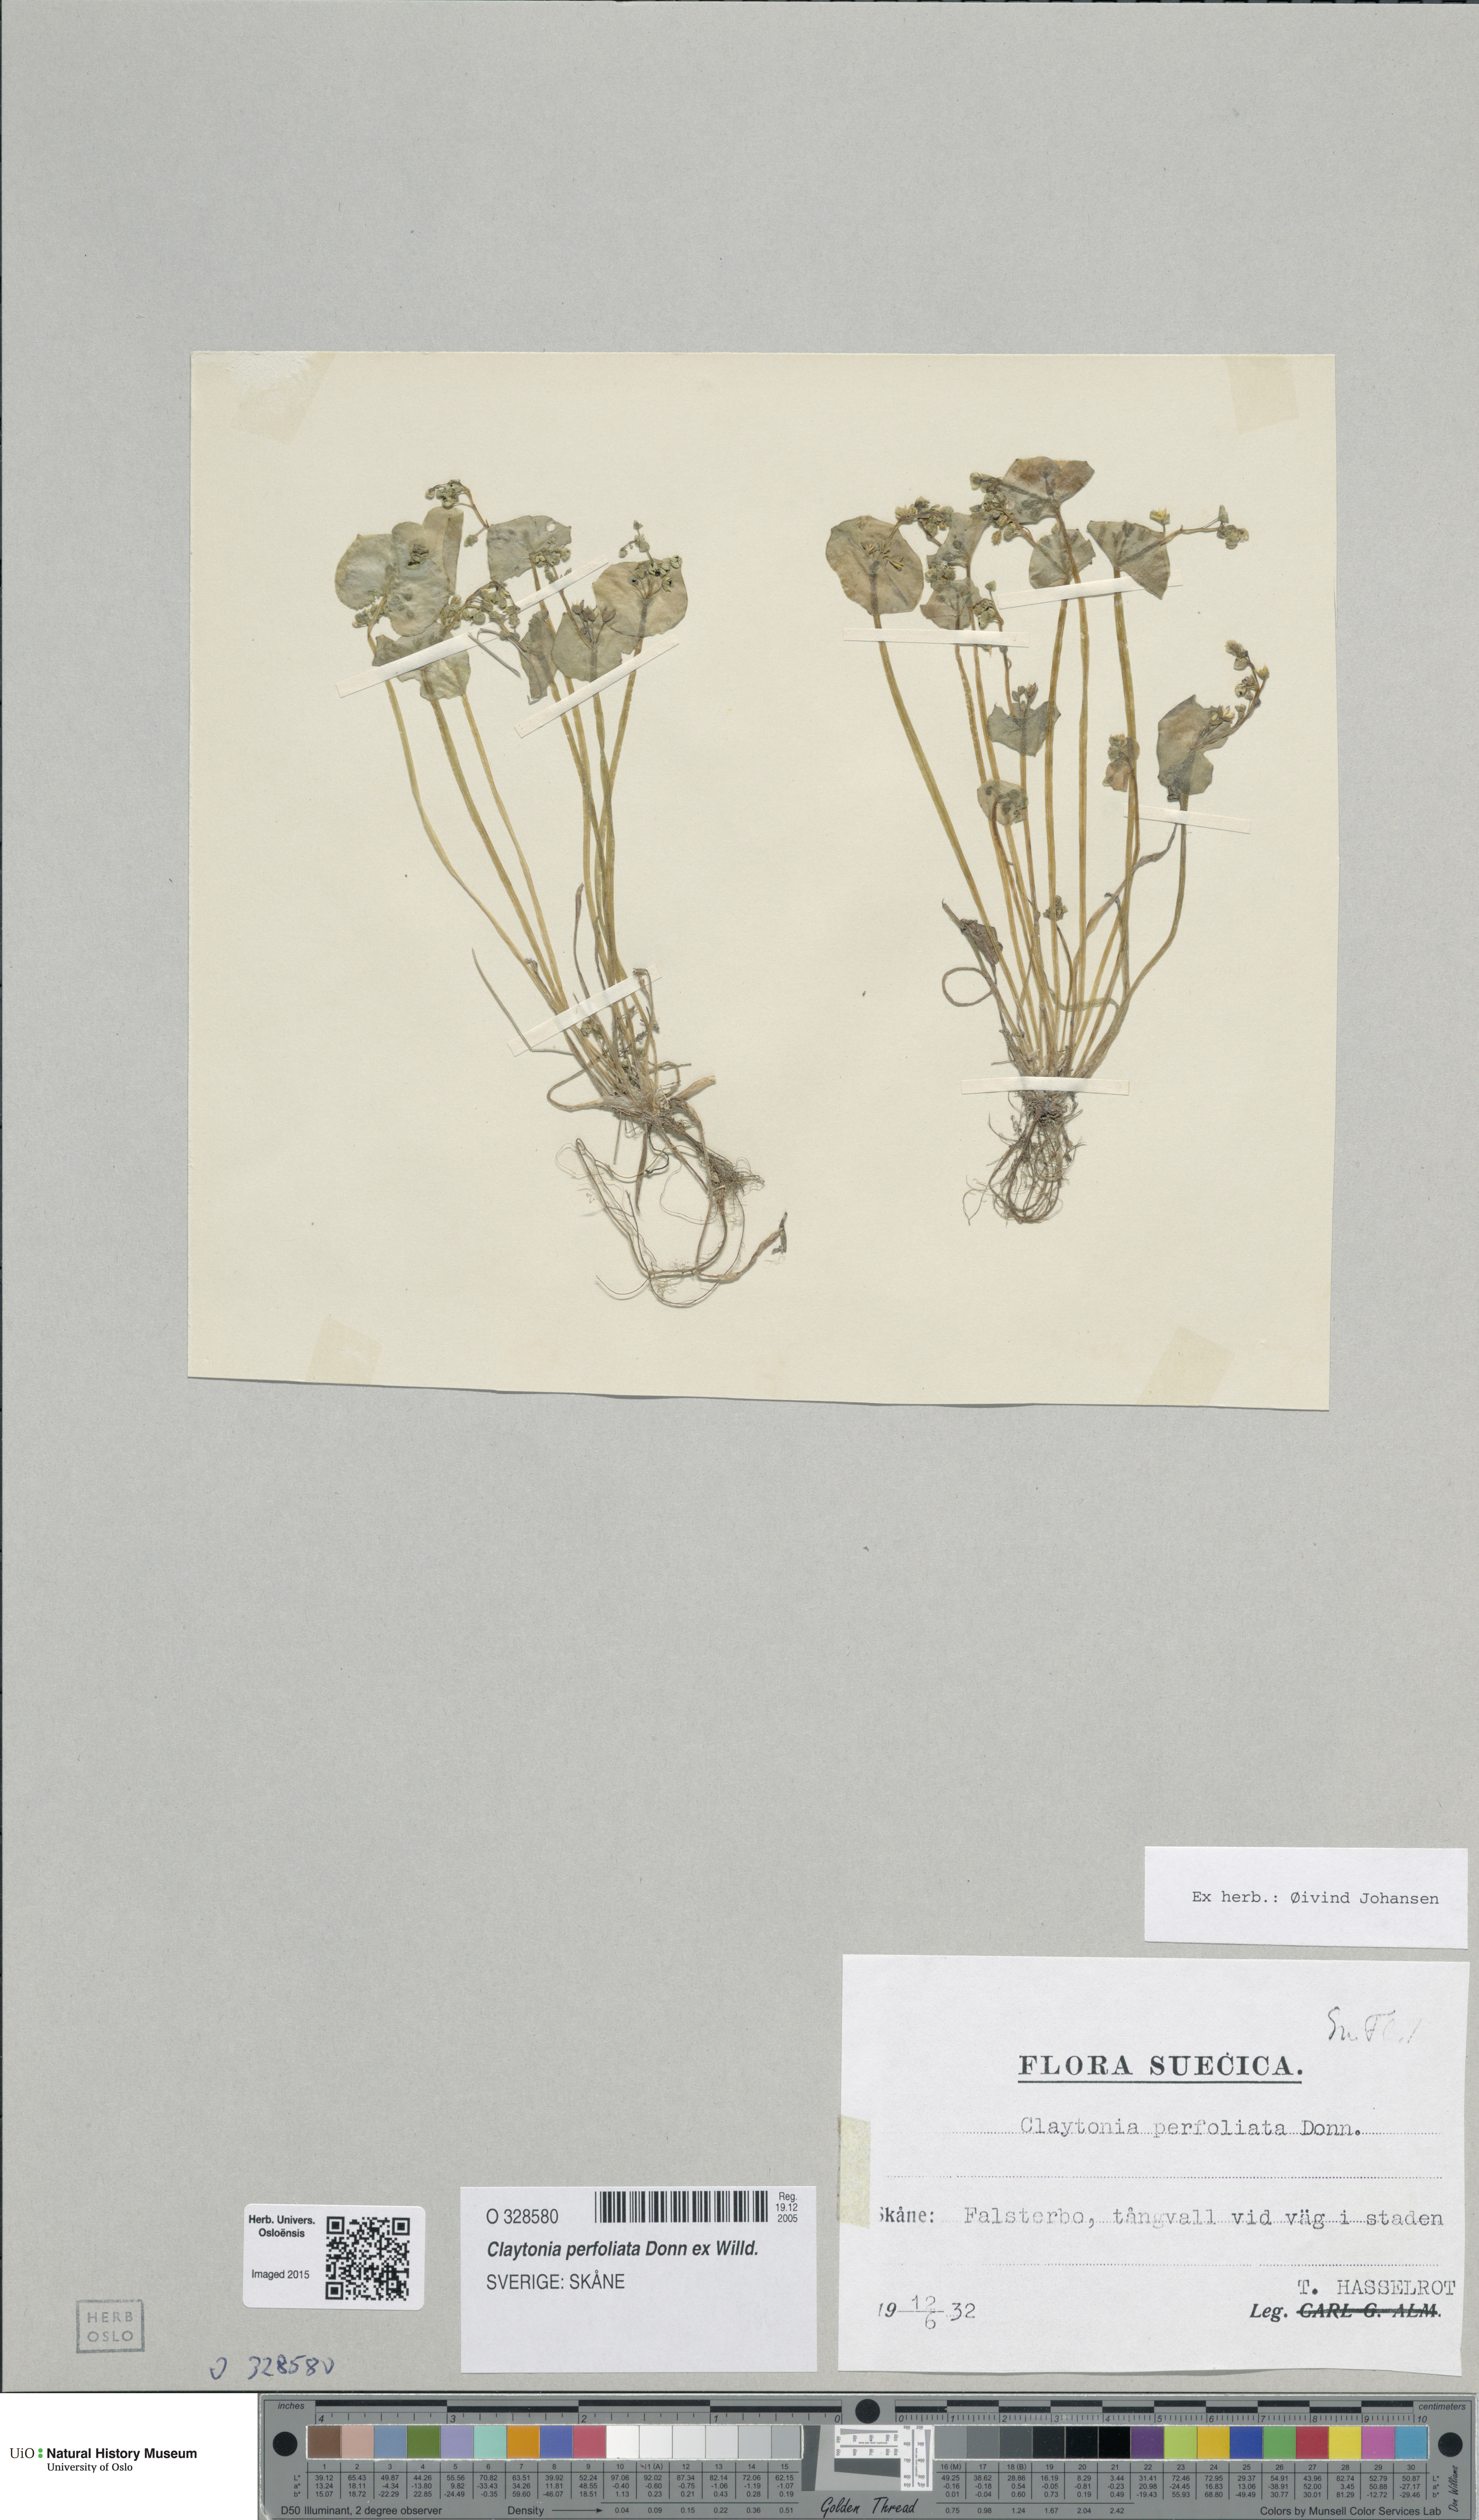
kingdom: Plantae
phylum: Tracheophyta
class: Magnoliopsida
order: Caryophyllales
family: Montiaceae
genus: Claytonia
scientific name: Claytonia perfoliata
